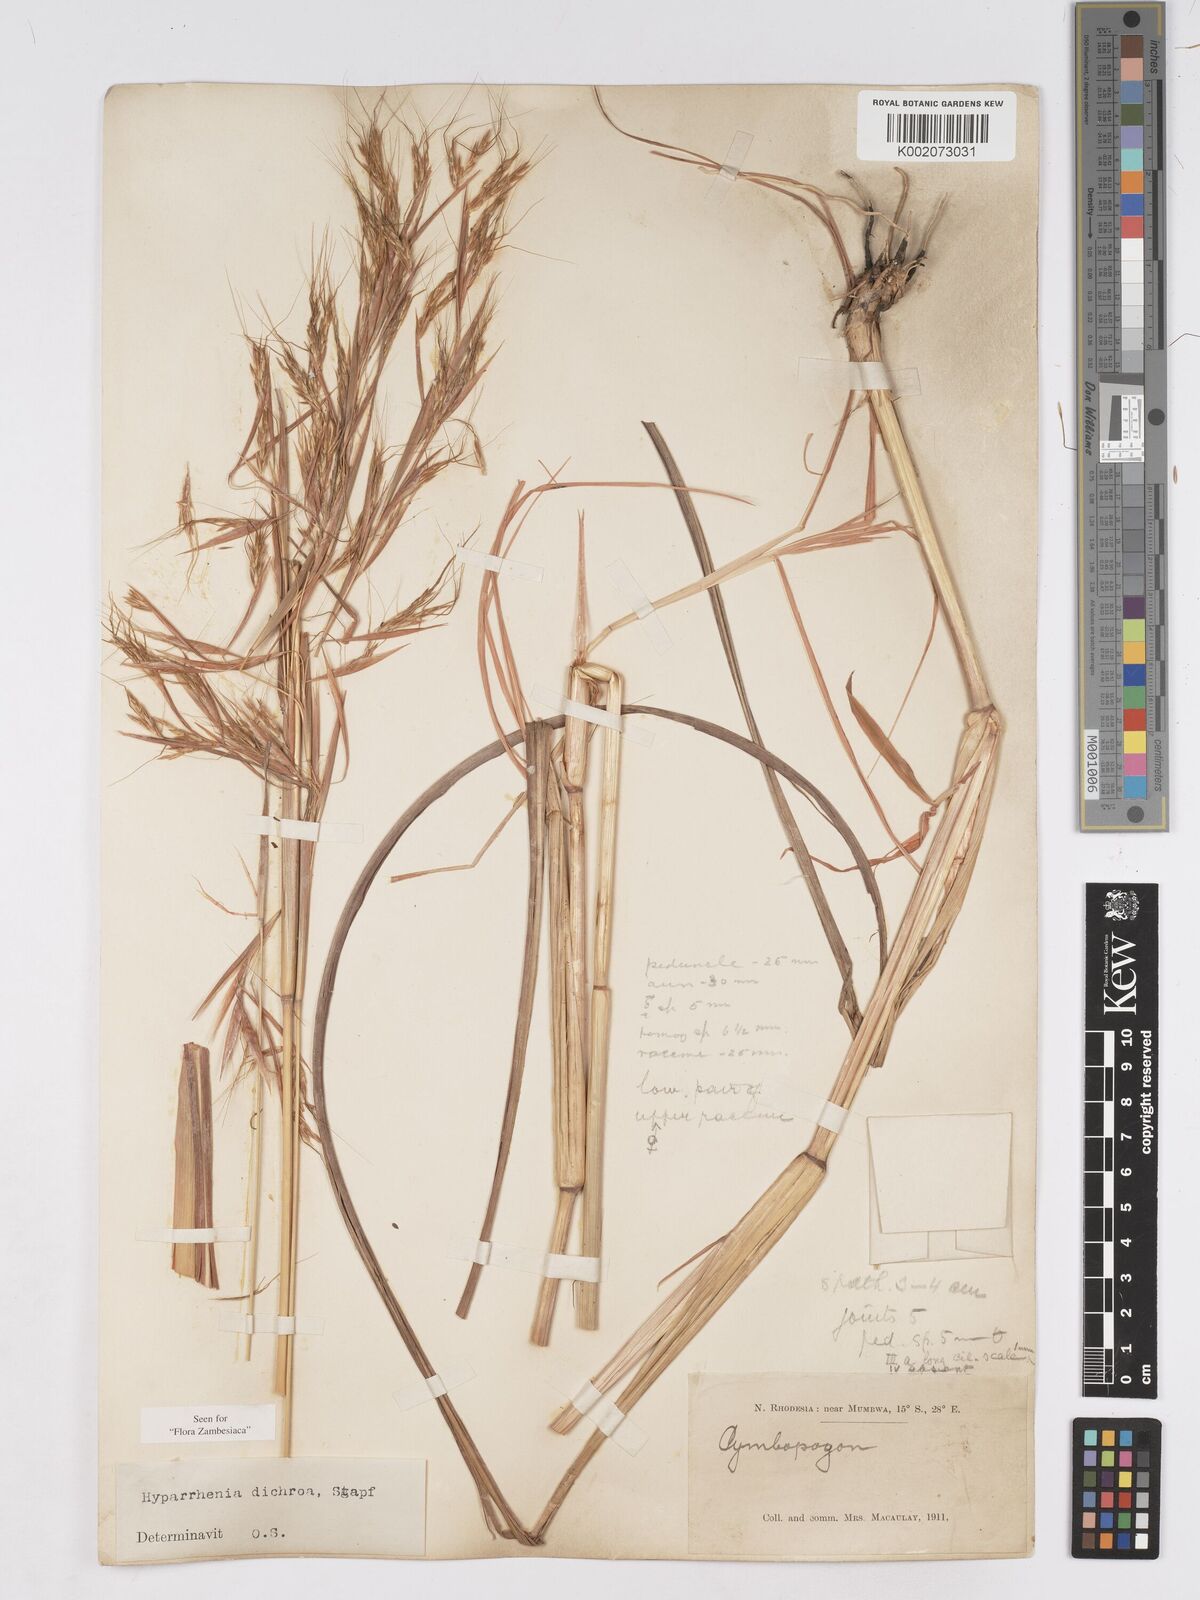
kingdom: Plantae
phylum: Tracheophyta
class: Liliopsida
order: Poales
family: Poaceae
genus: Hyparrhenia
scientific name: Hyparrhenia dichroa
